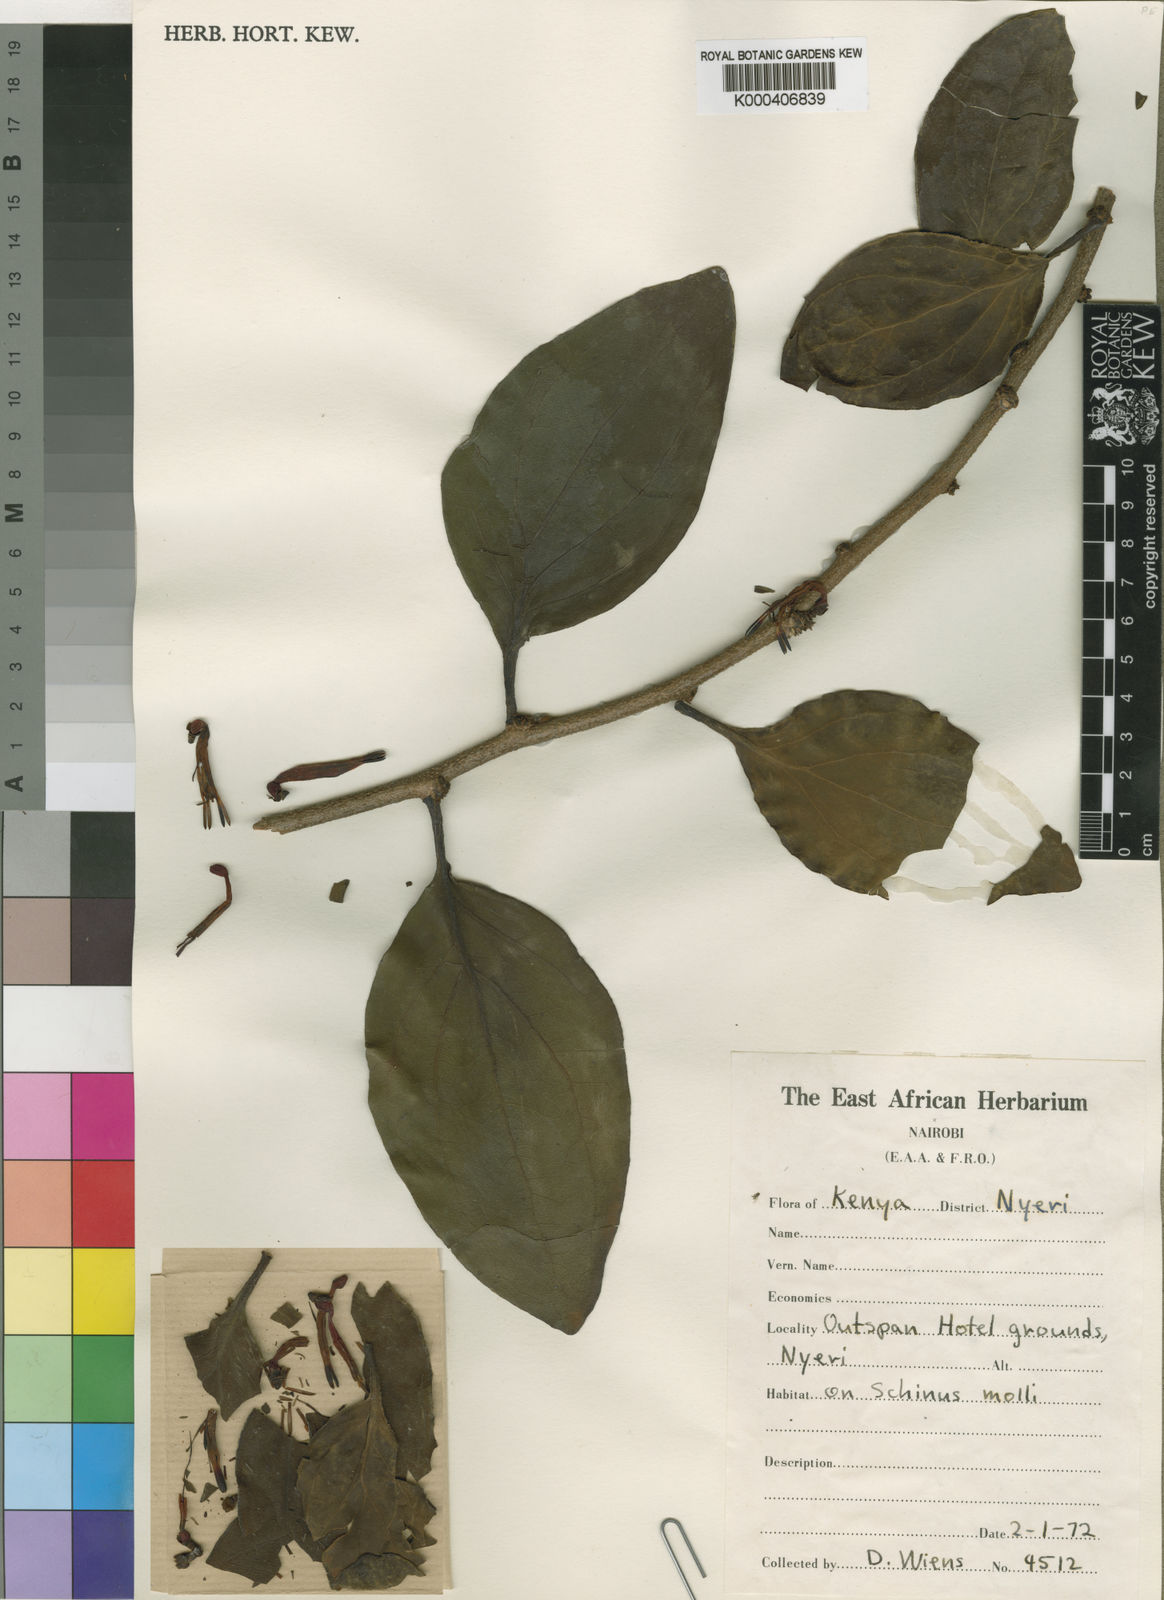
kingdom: Plantae
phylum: Tracheophyta
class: Magnoliopsida
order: Santalales
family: Loranthaceae
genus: Agelanthus
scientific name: Agelanthus sansibarensis
